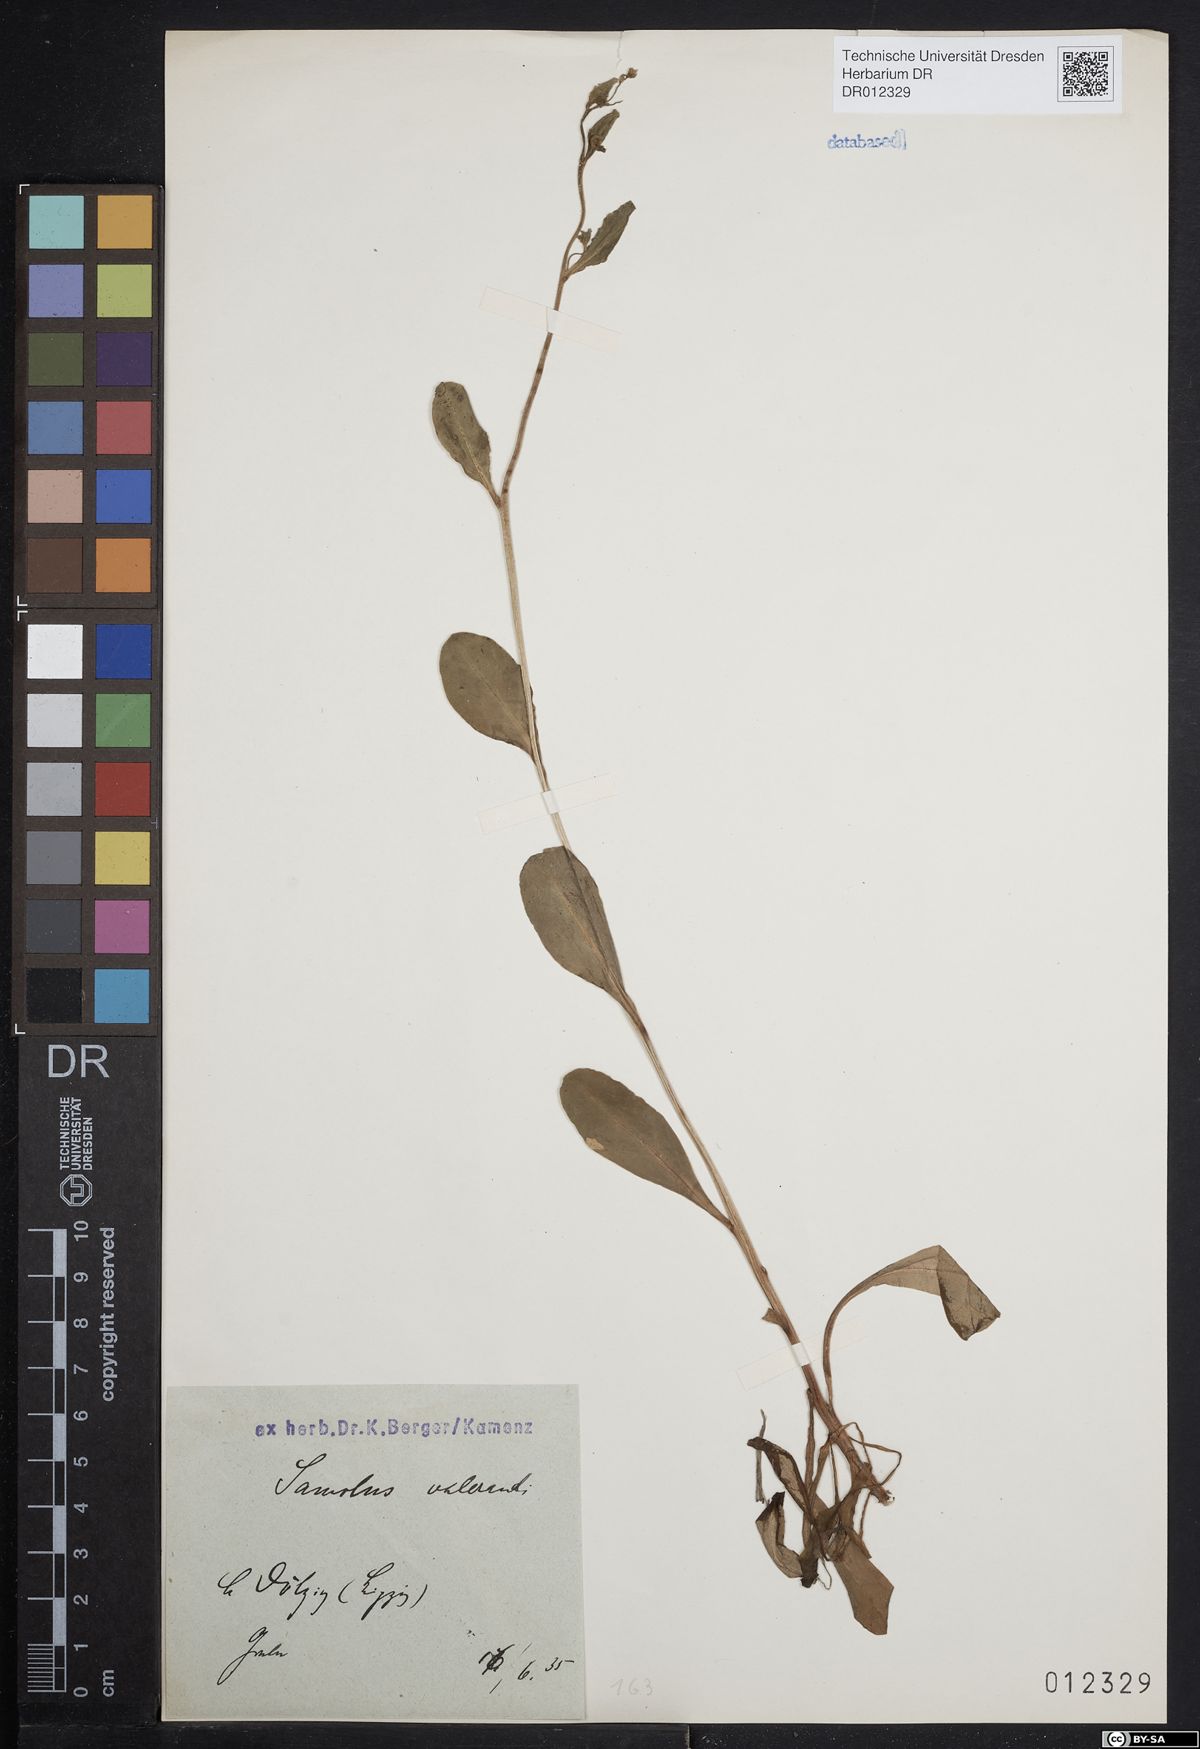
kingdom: Plantae
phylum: Tracheophyta
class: Magnoliopsida
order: Ericales
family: Primulaceae
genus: Samolus
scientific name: Samolus valerandi
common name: Brookweed
